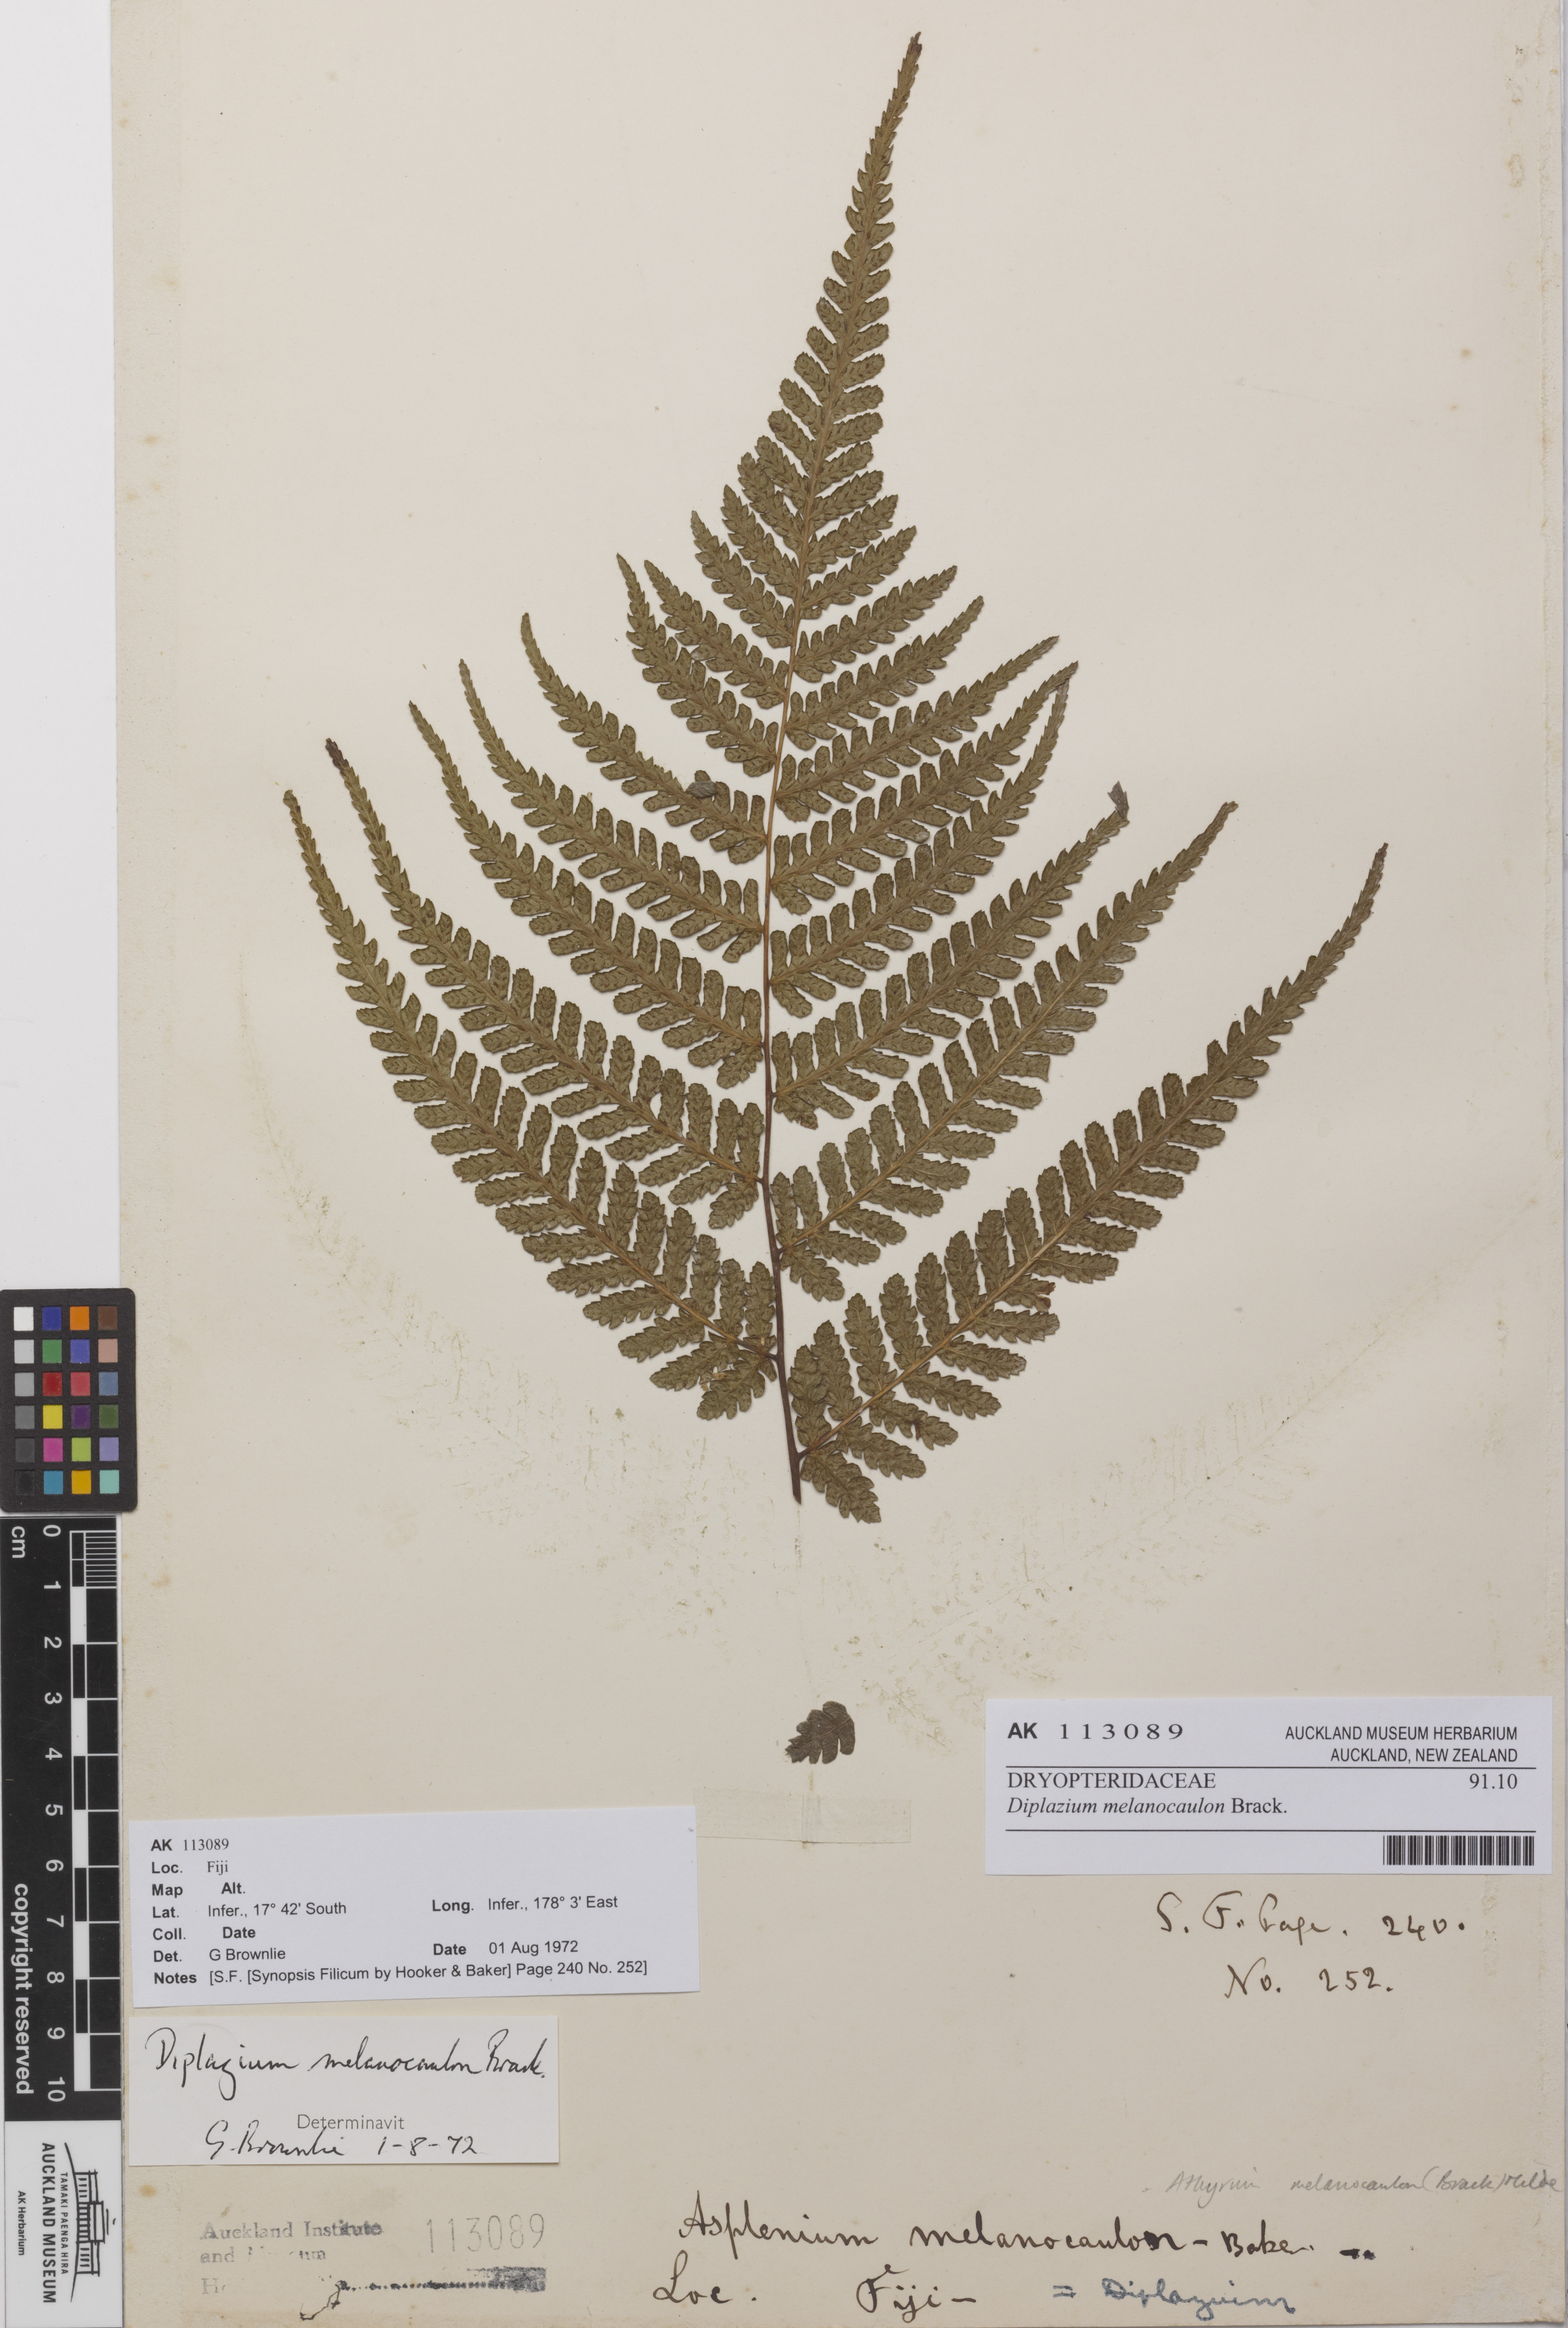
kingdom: Plantae
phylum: Tracheophyta
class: Polypodiopsida
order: Polypodiales
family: Athyriaceae
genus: Diplazium
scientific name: Diplazium melanocaulon
